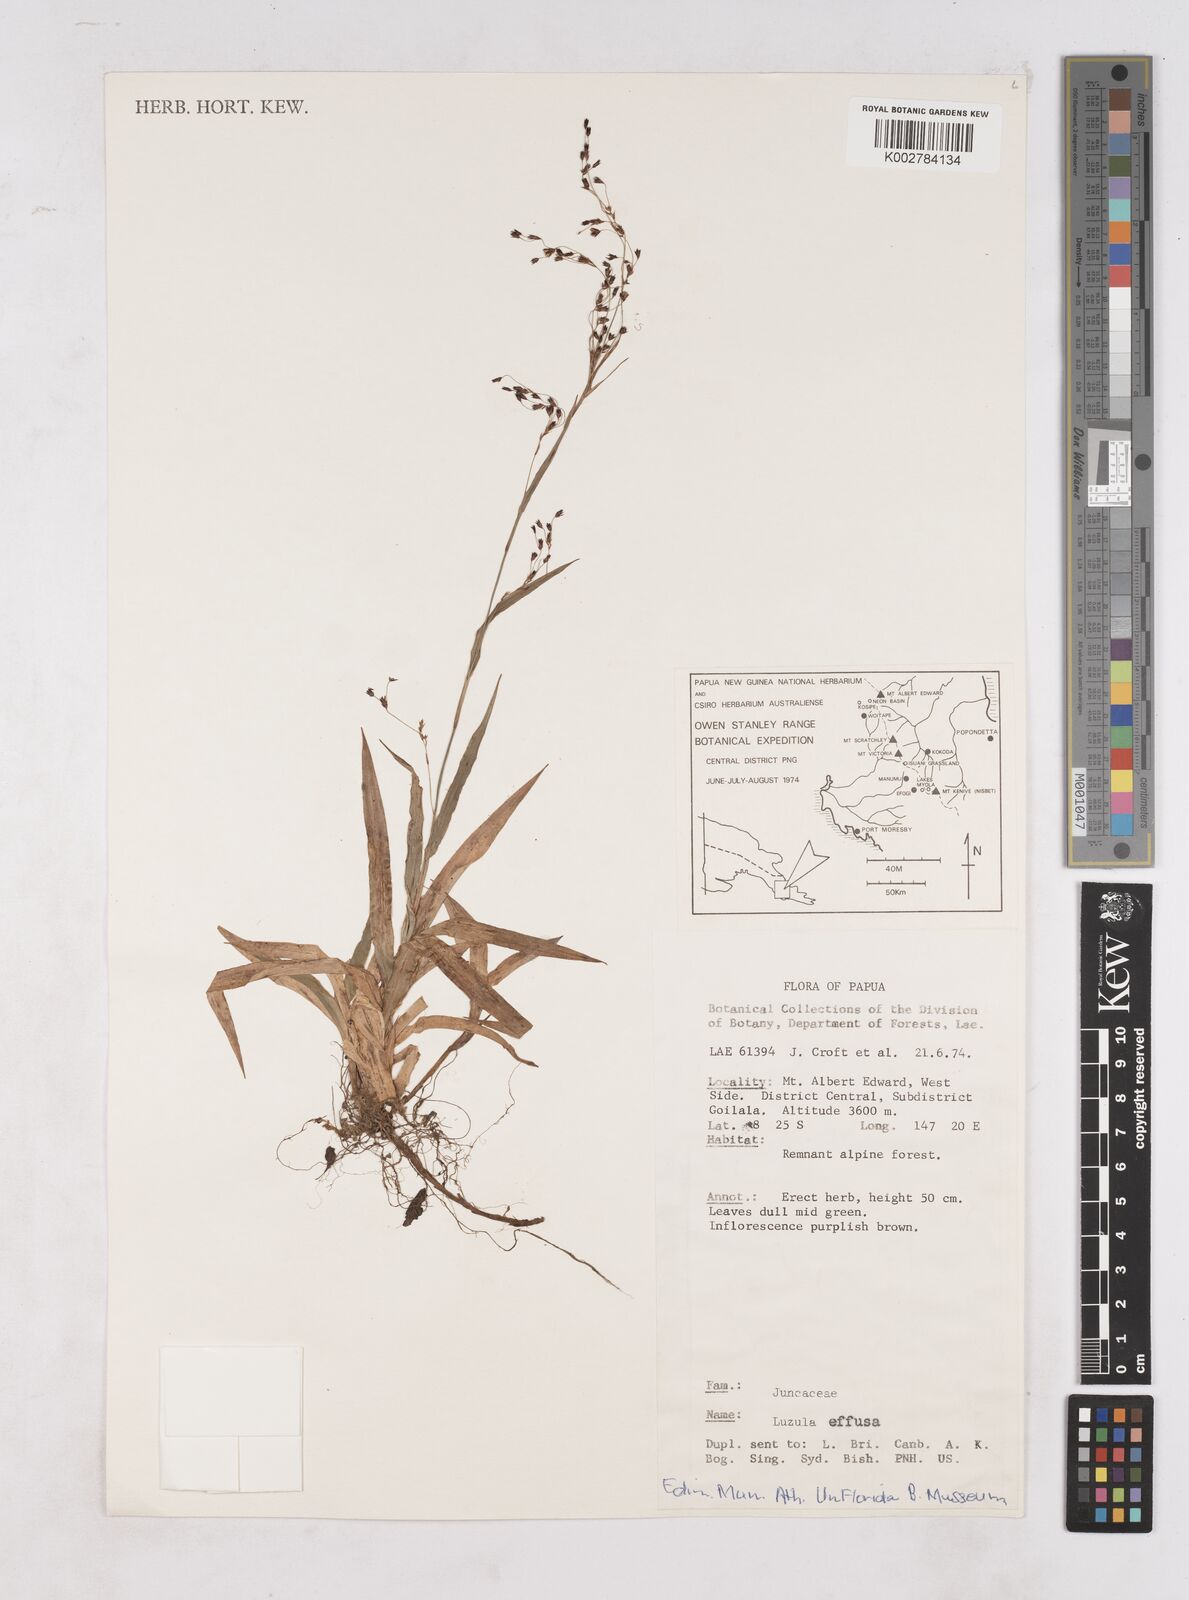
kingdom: Plantae
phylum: Tracheophyta
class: Liliopsida
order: Poales
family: Juncaceae
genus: Luzula
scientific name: Luzula effusa
